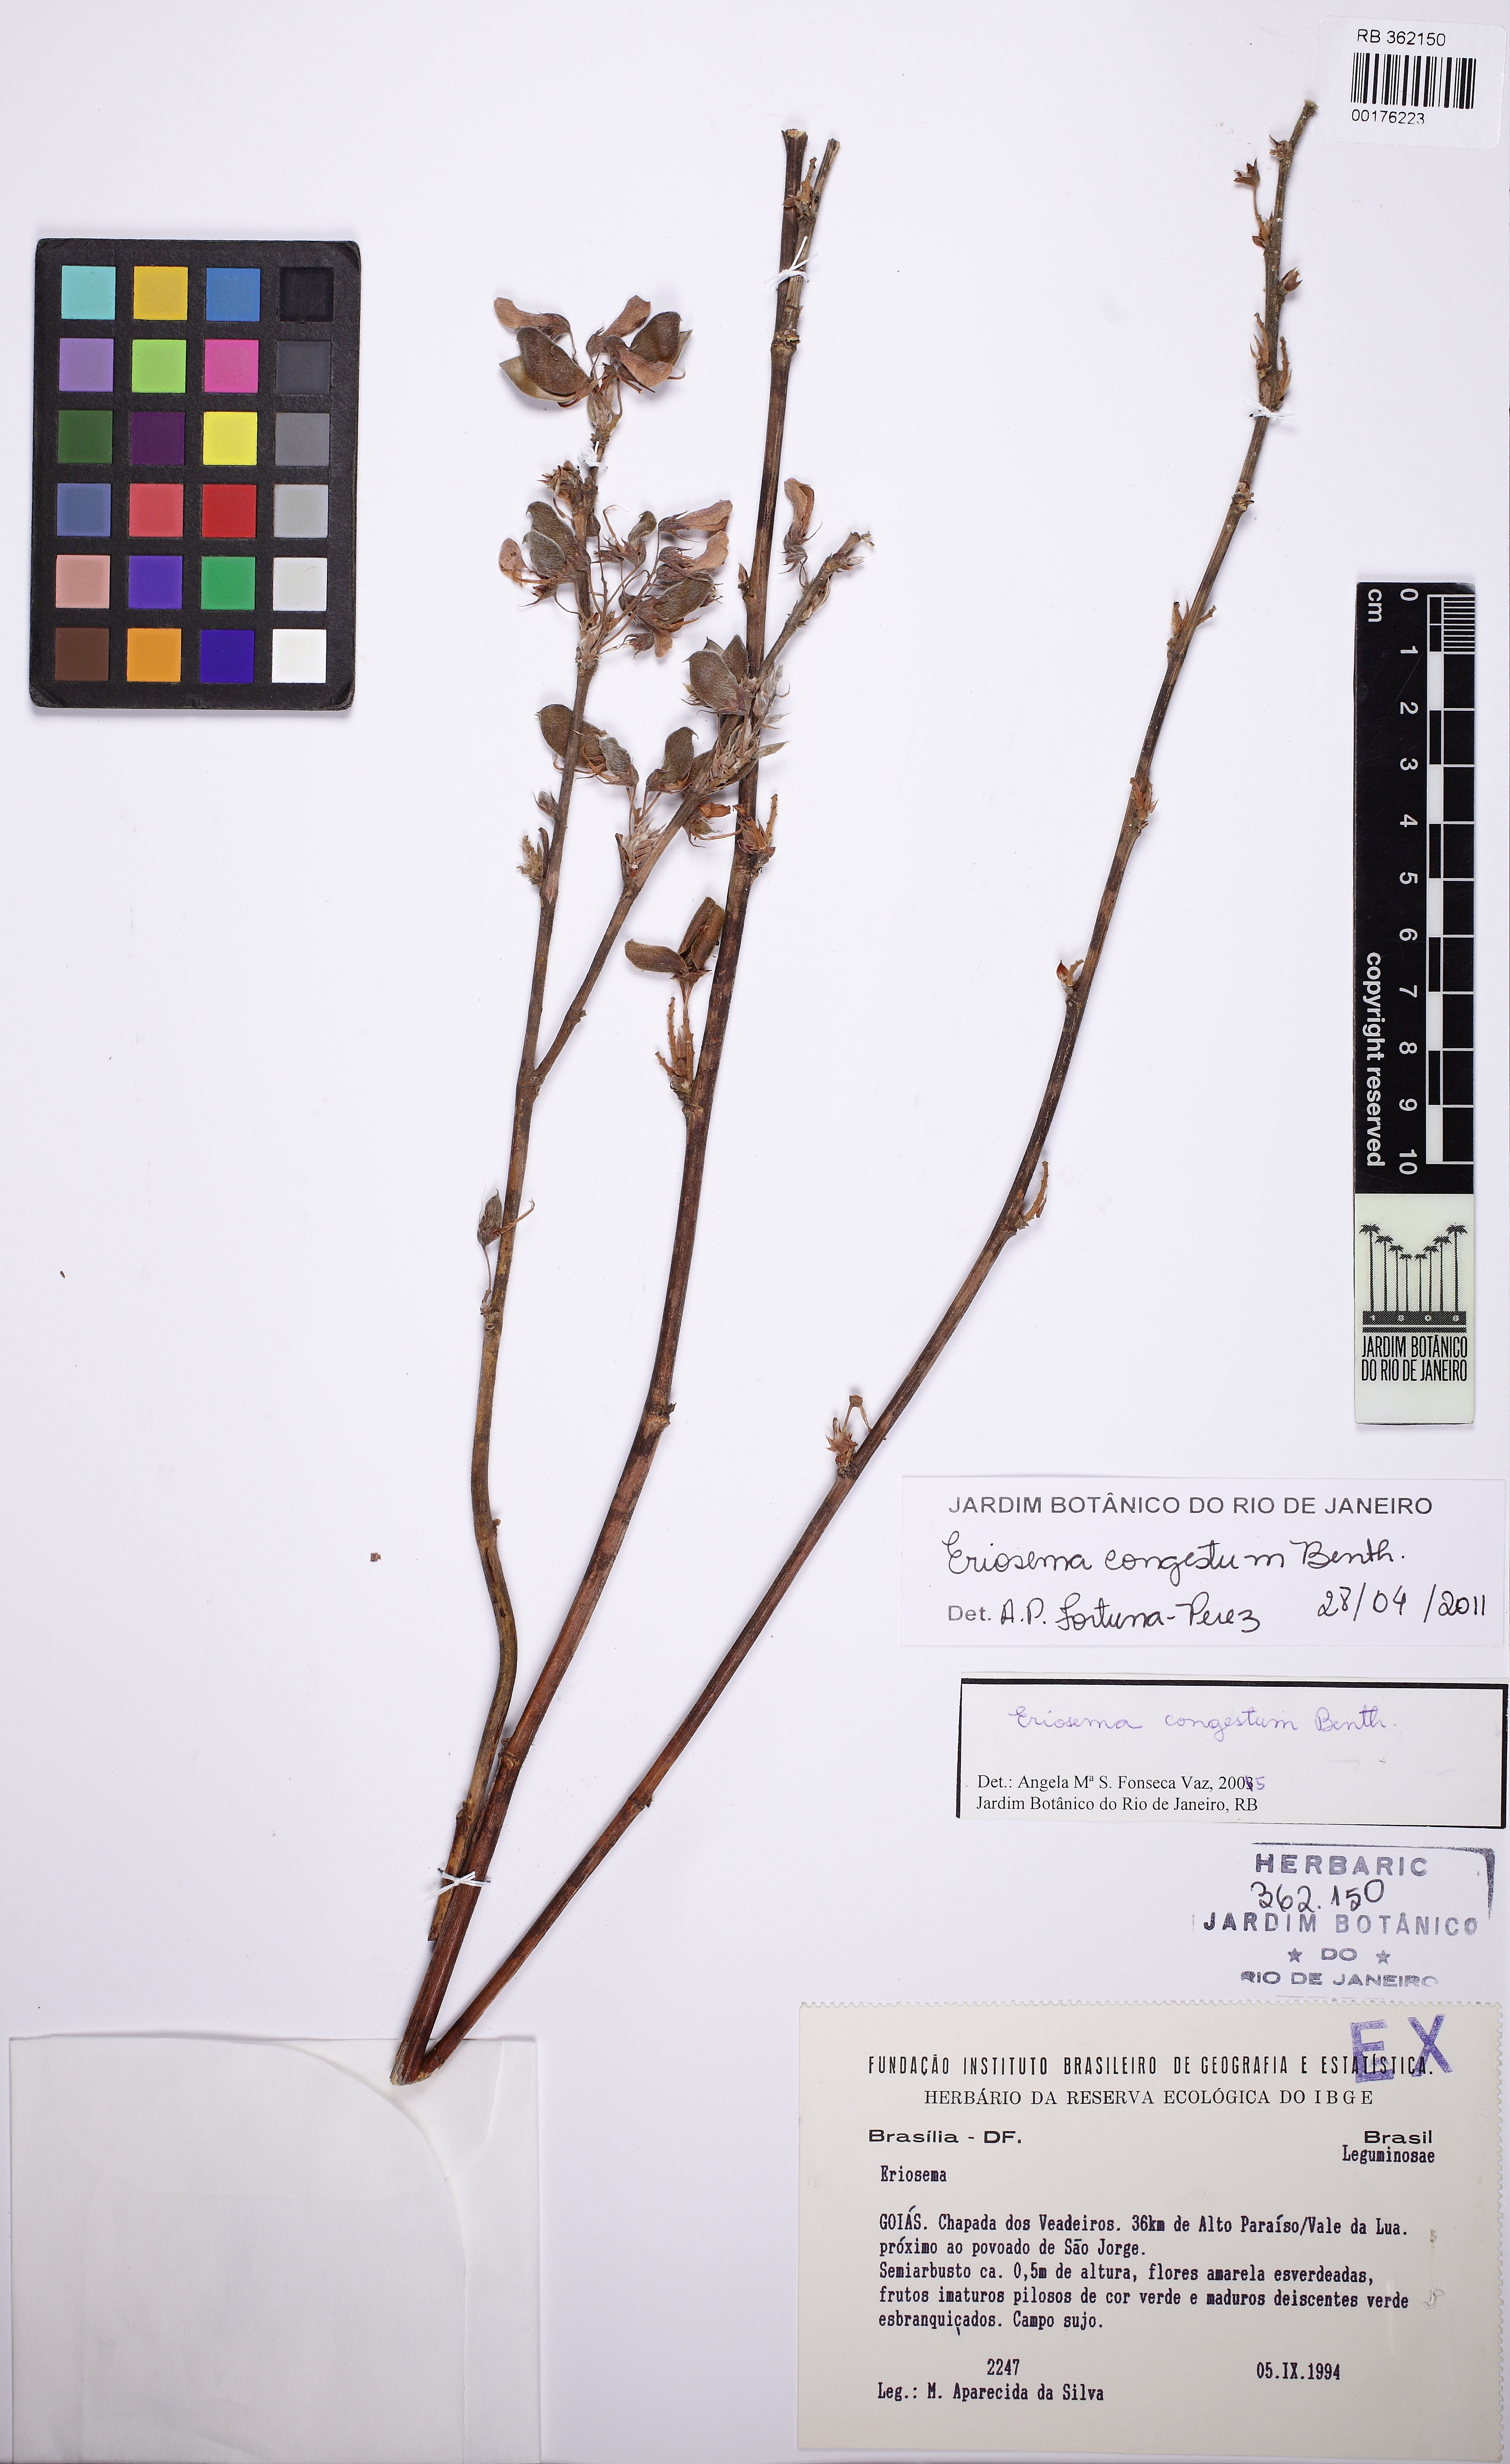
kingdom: Plantae
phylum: Tracheophyta
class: Magnoliopsida
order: Fabales
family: Fabaceae
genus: Eriosema
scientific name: Eriosema congestum
